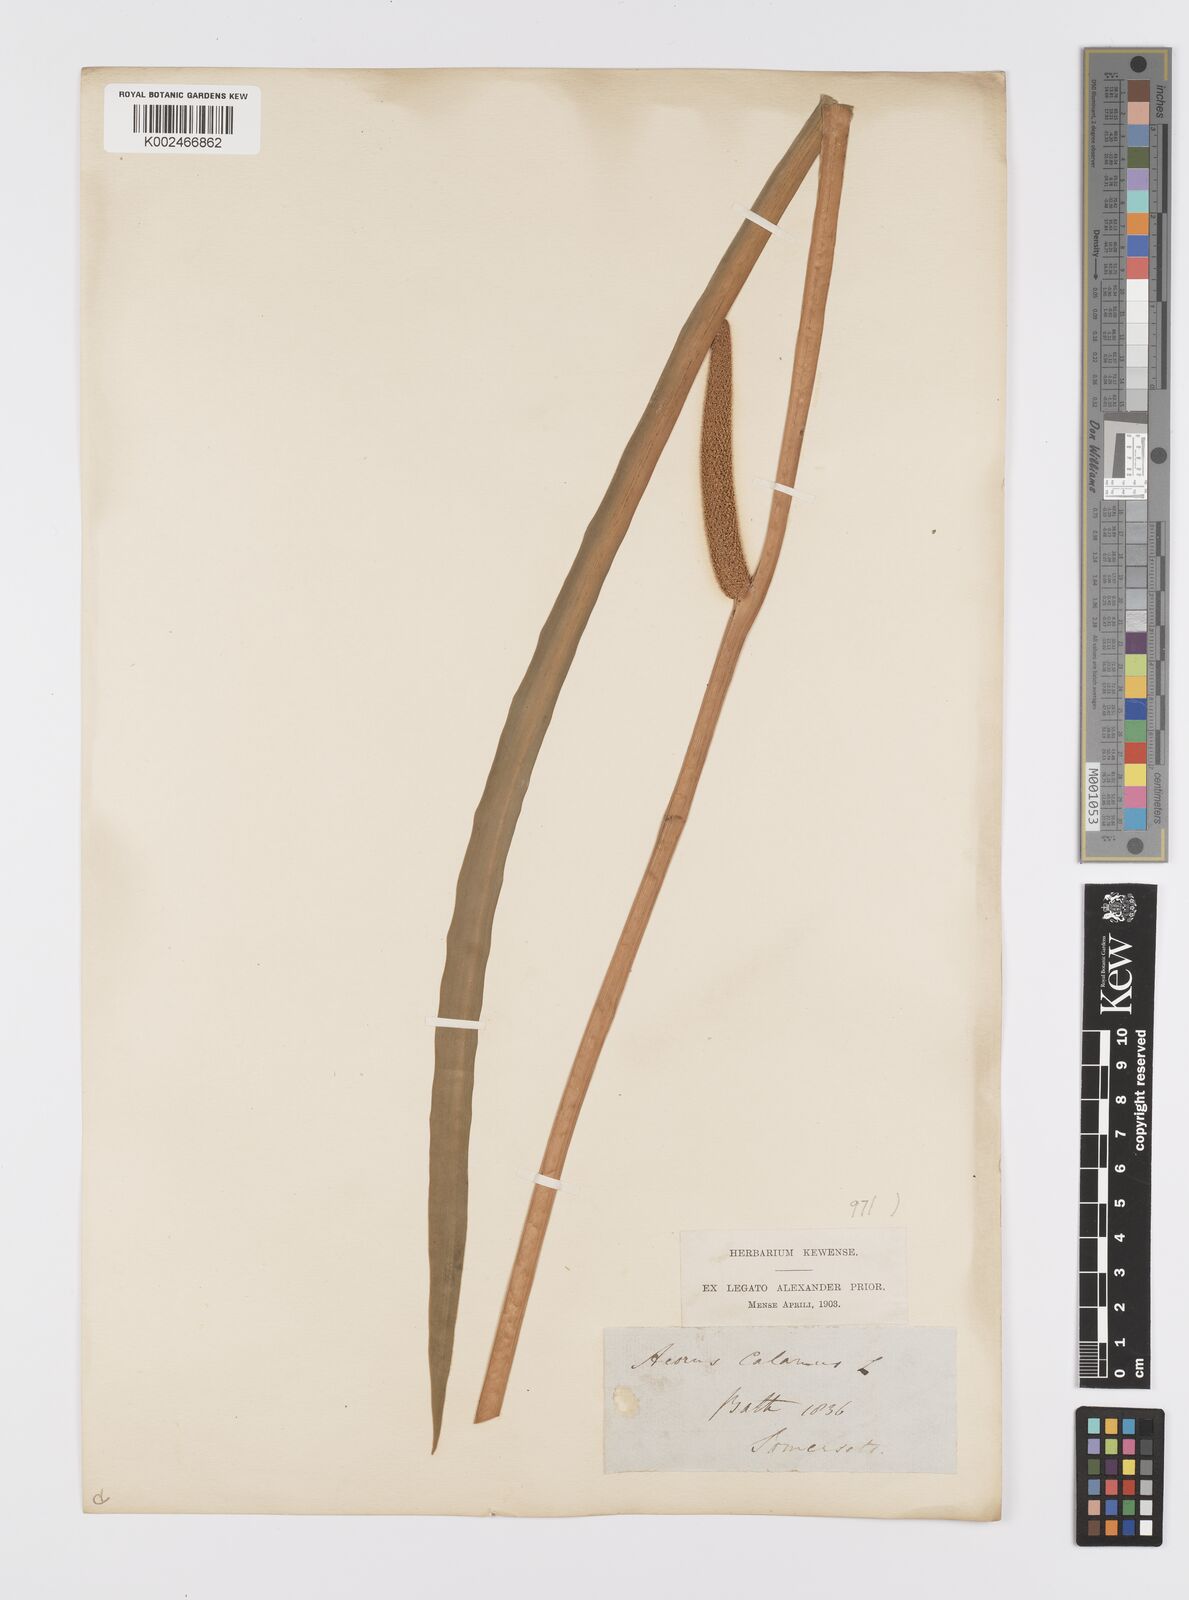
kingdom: Plantae
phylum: Tracheophyta
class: Liliopsida
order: Acorales
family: Acoraceae
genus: Acorus
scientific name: Acorus calamus
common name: Sweet-flag
